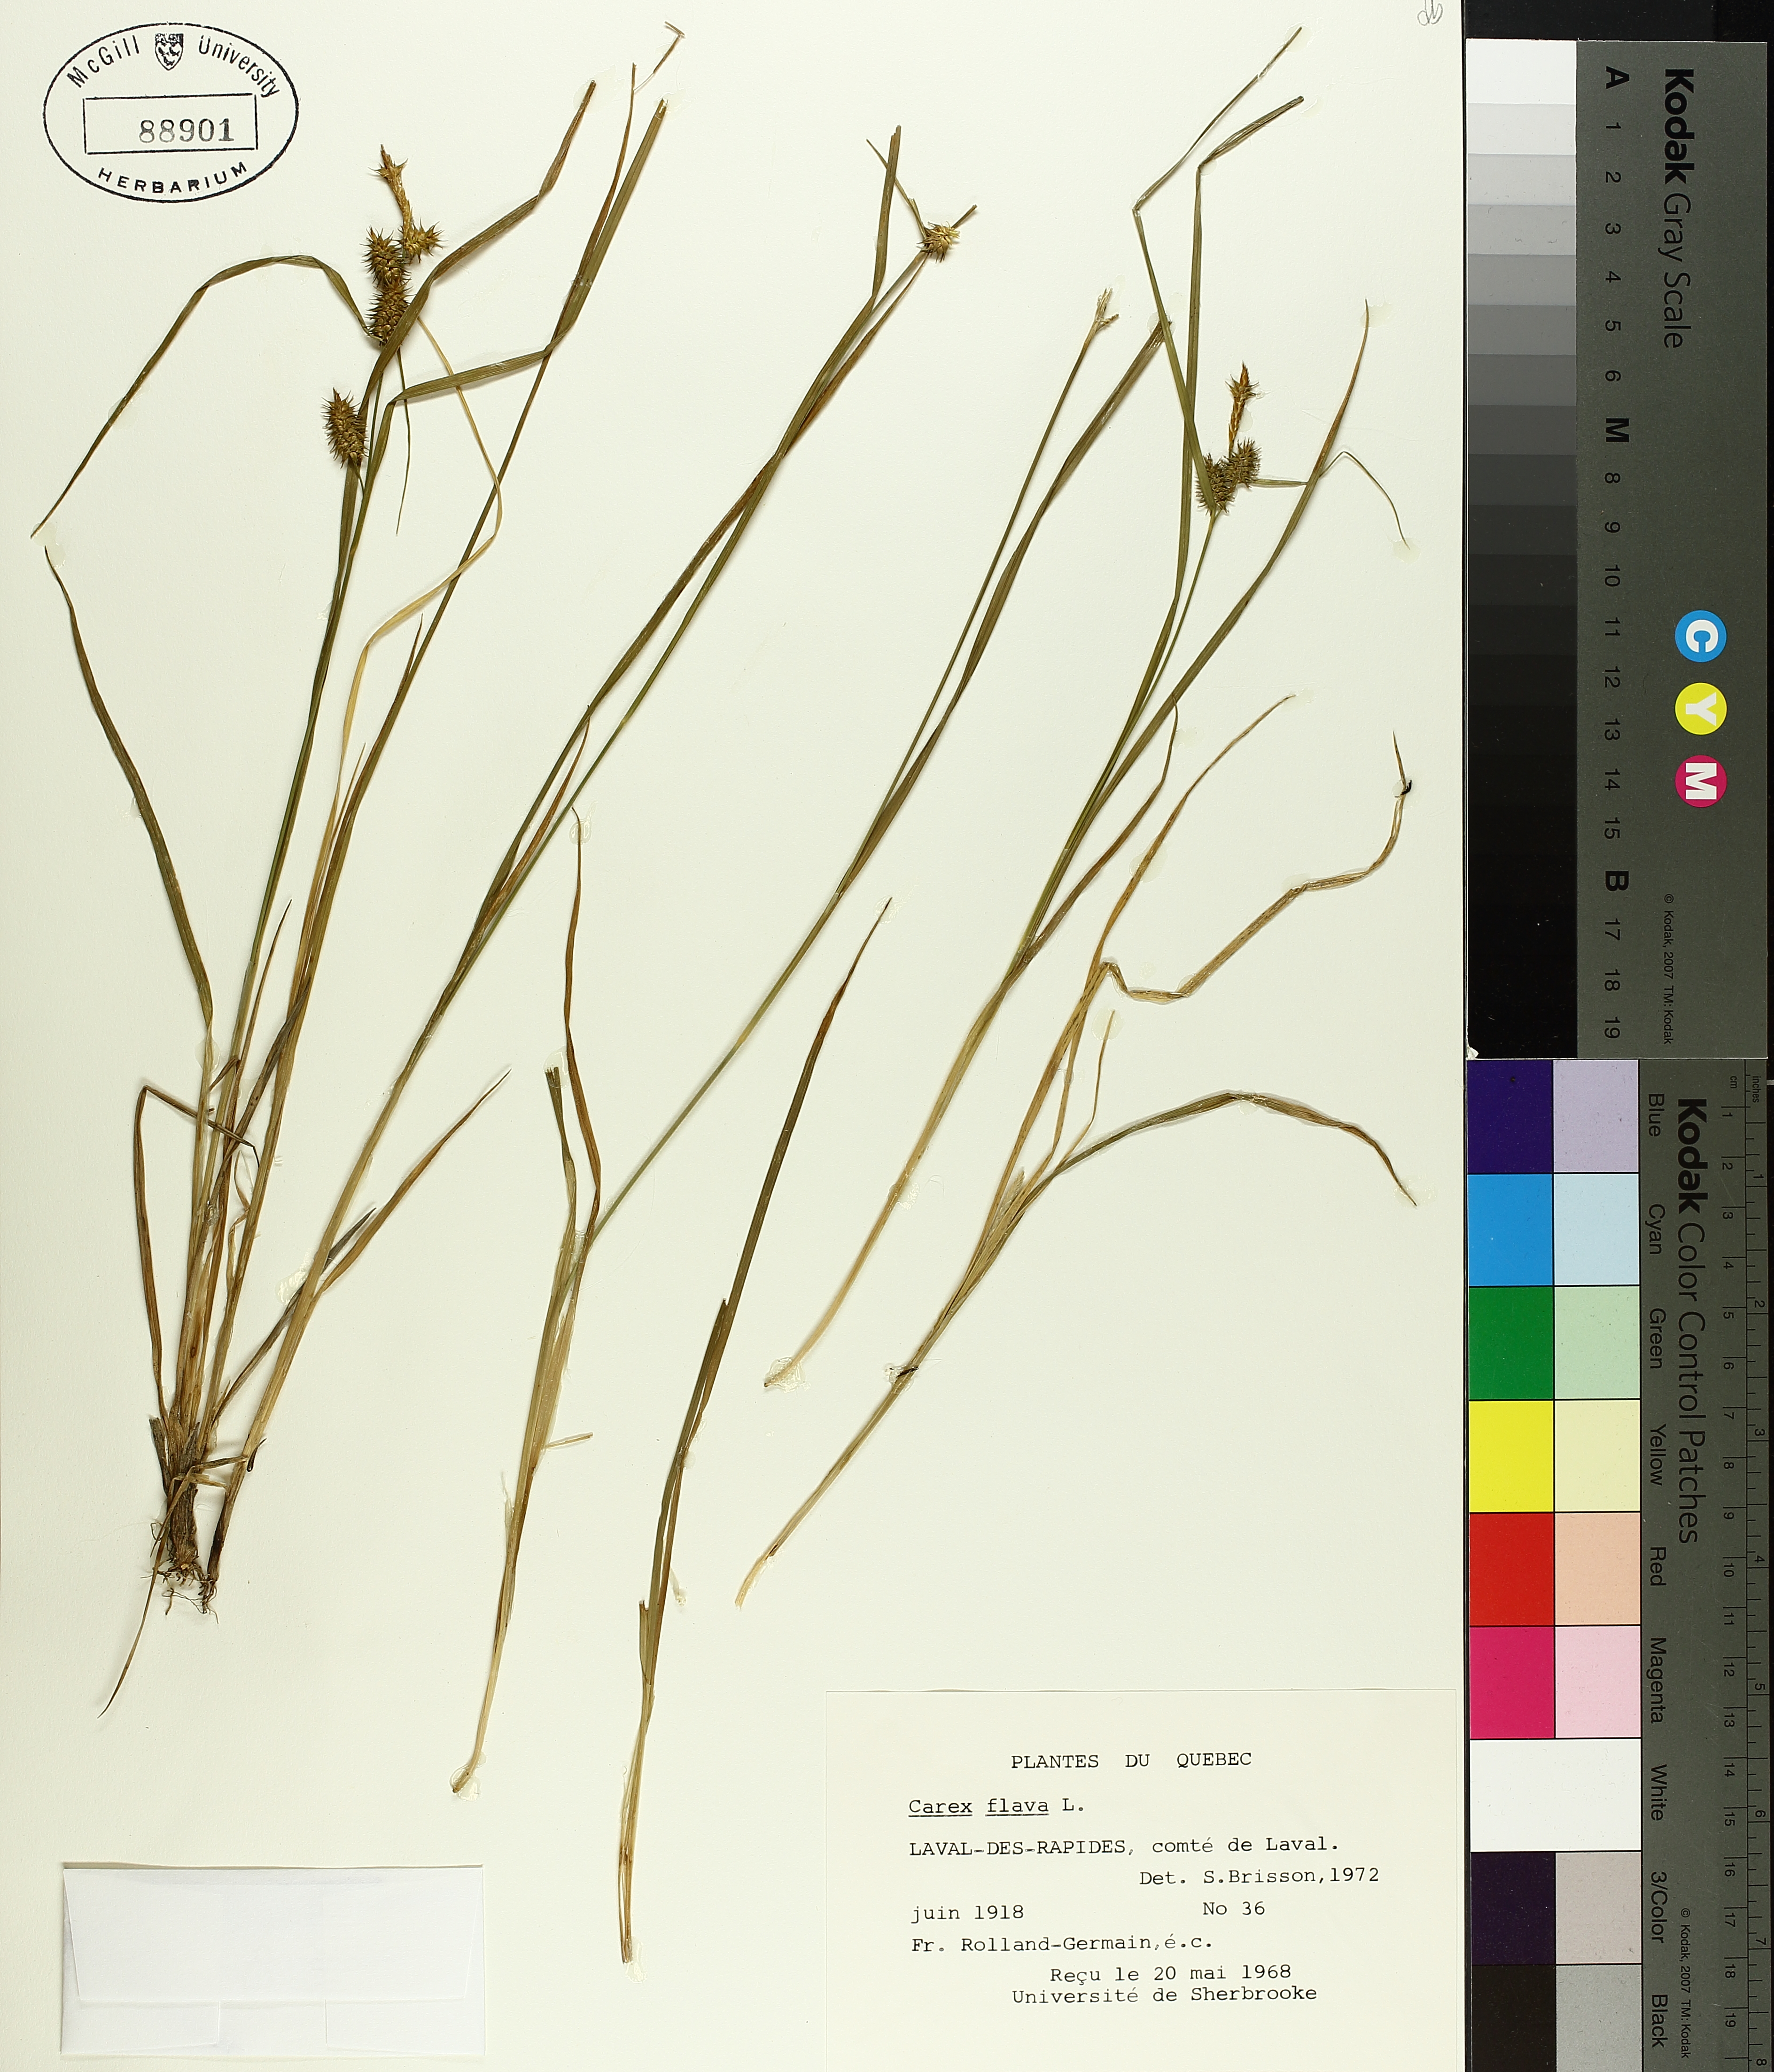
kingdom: Plantae
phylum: Tracheophyta
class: Liliopsida
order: Poales
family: Cyperaceae
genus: Carex
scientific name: Carex flava
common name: Large yellow-sedge
